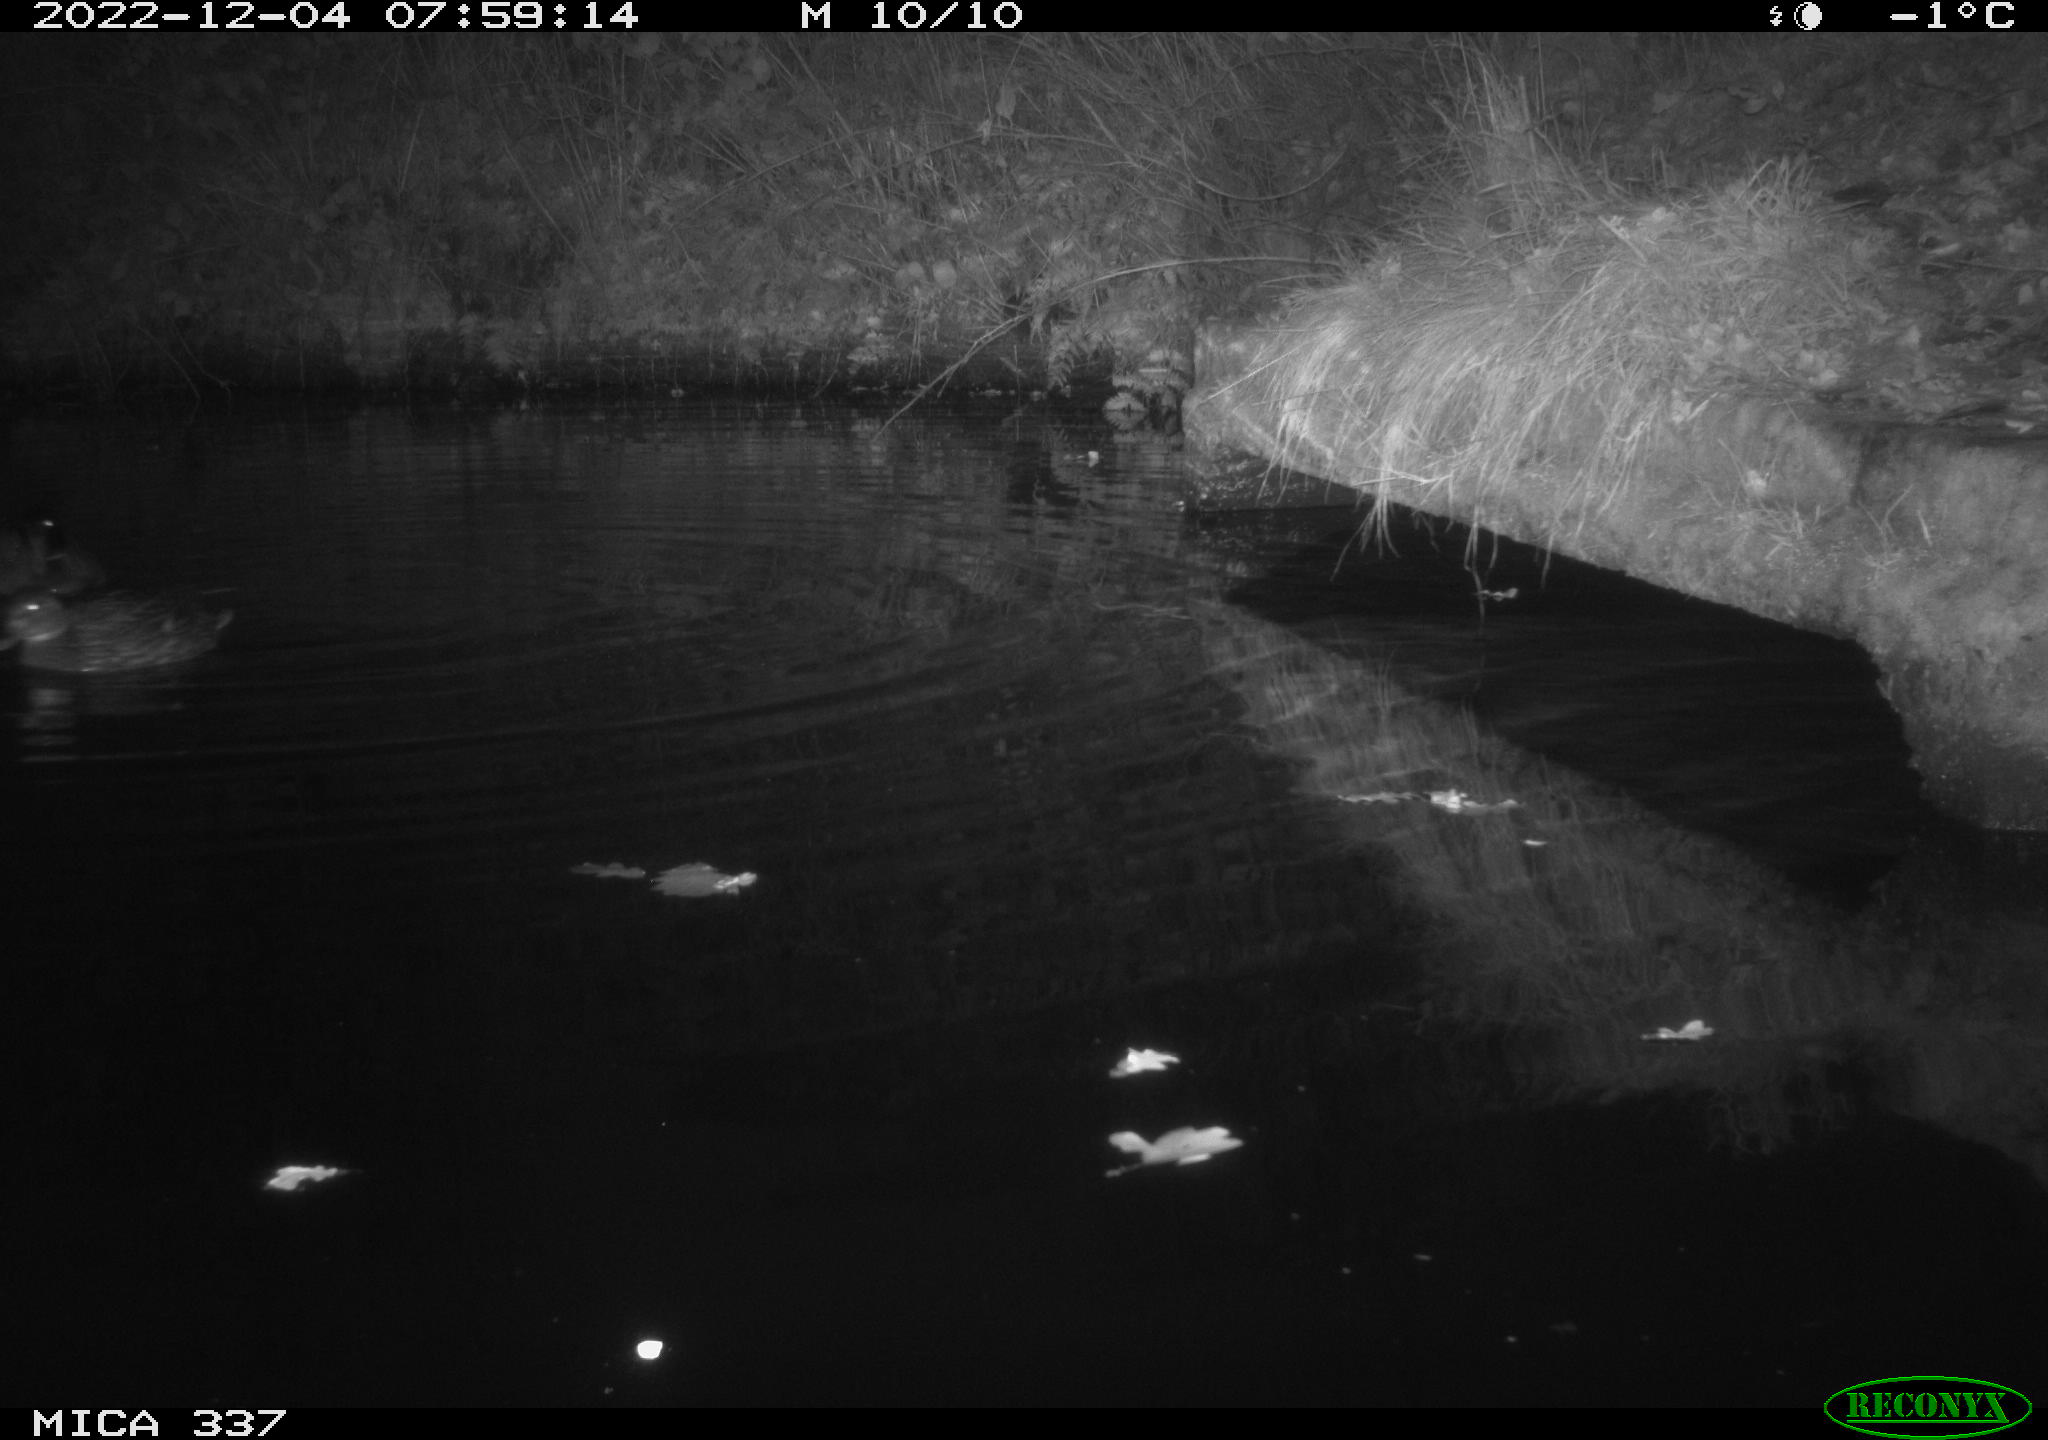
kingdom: Animalia
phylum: Chordata
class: Aves
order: Anseriformes
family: Anatidae
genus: Anas
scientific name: Anas
